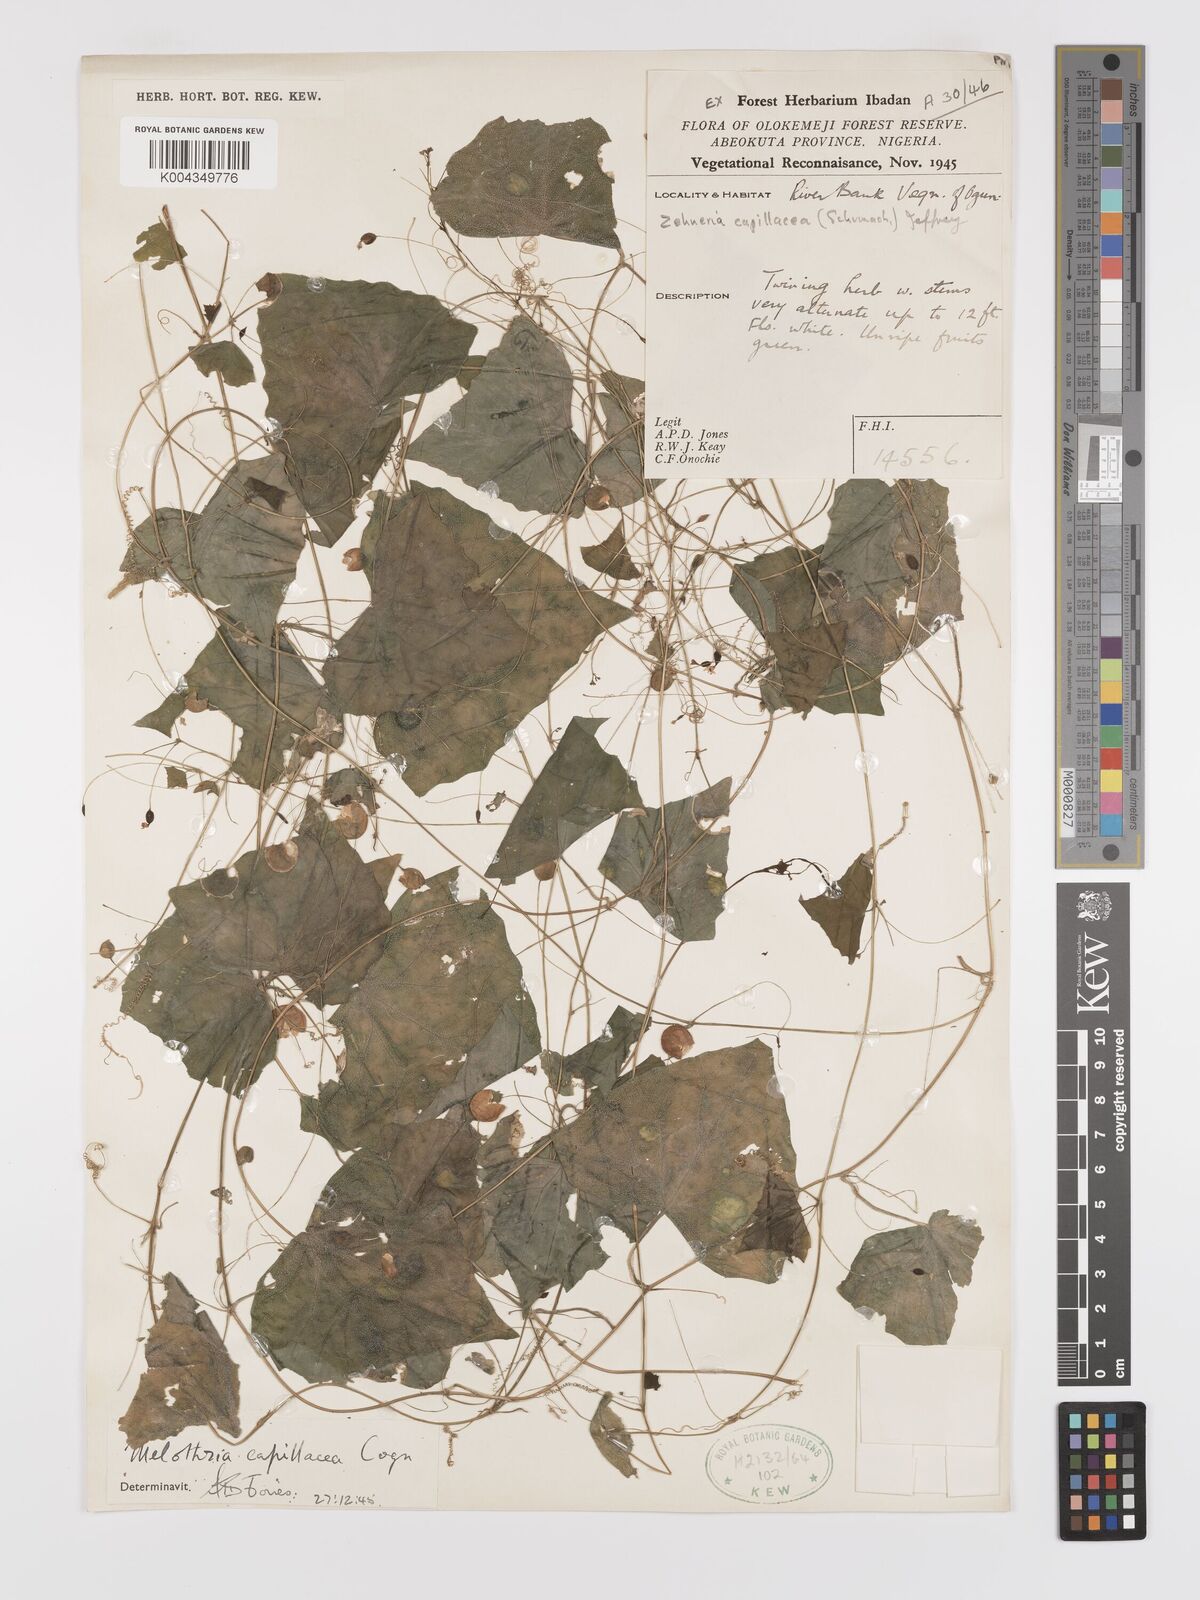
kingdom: Plantae
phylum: Tracheophyta
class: Magnoliopsida
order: Cucurbitales
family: Cucurbitaceae
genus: Zehneria
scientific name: Zehneria capillacea
